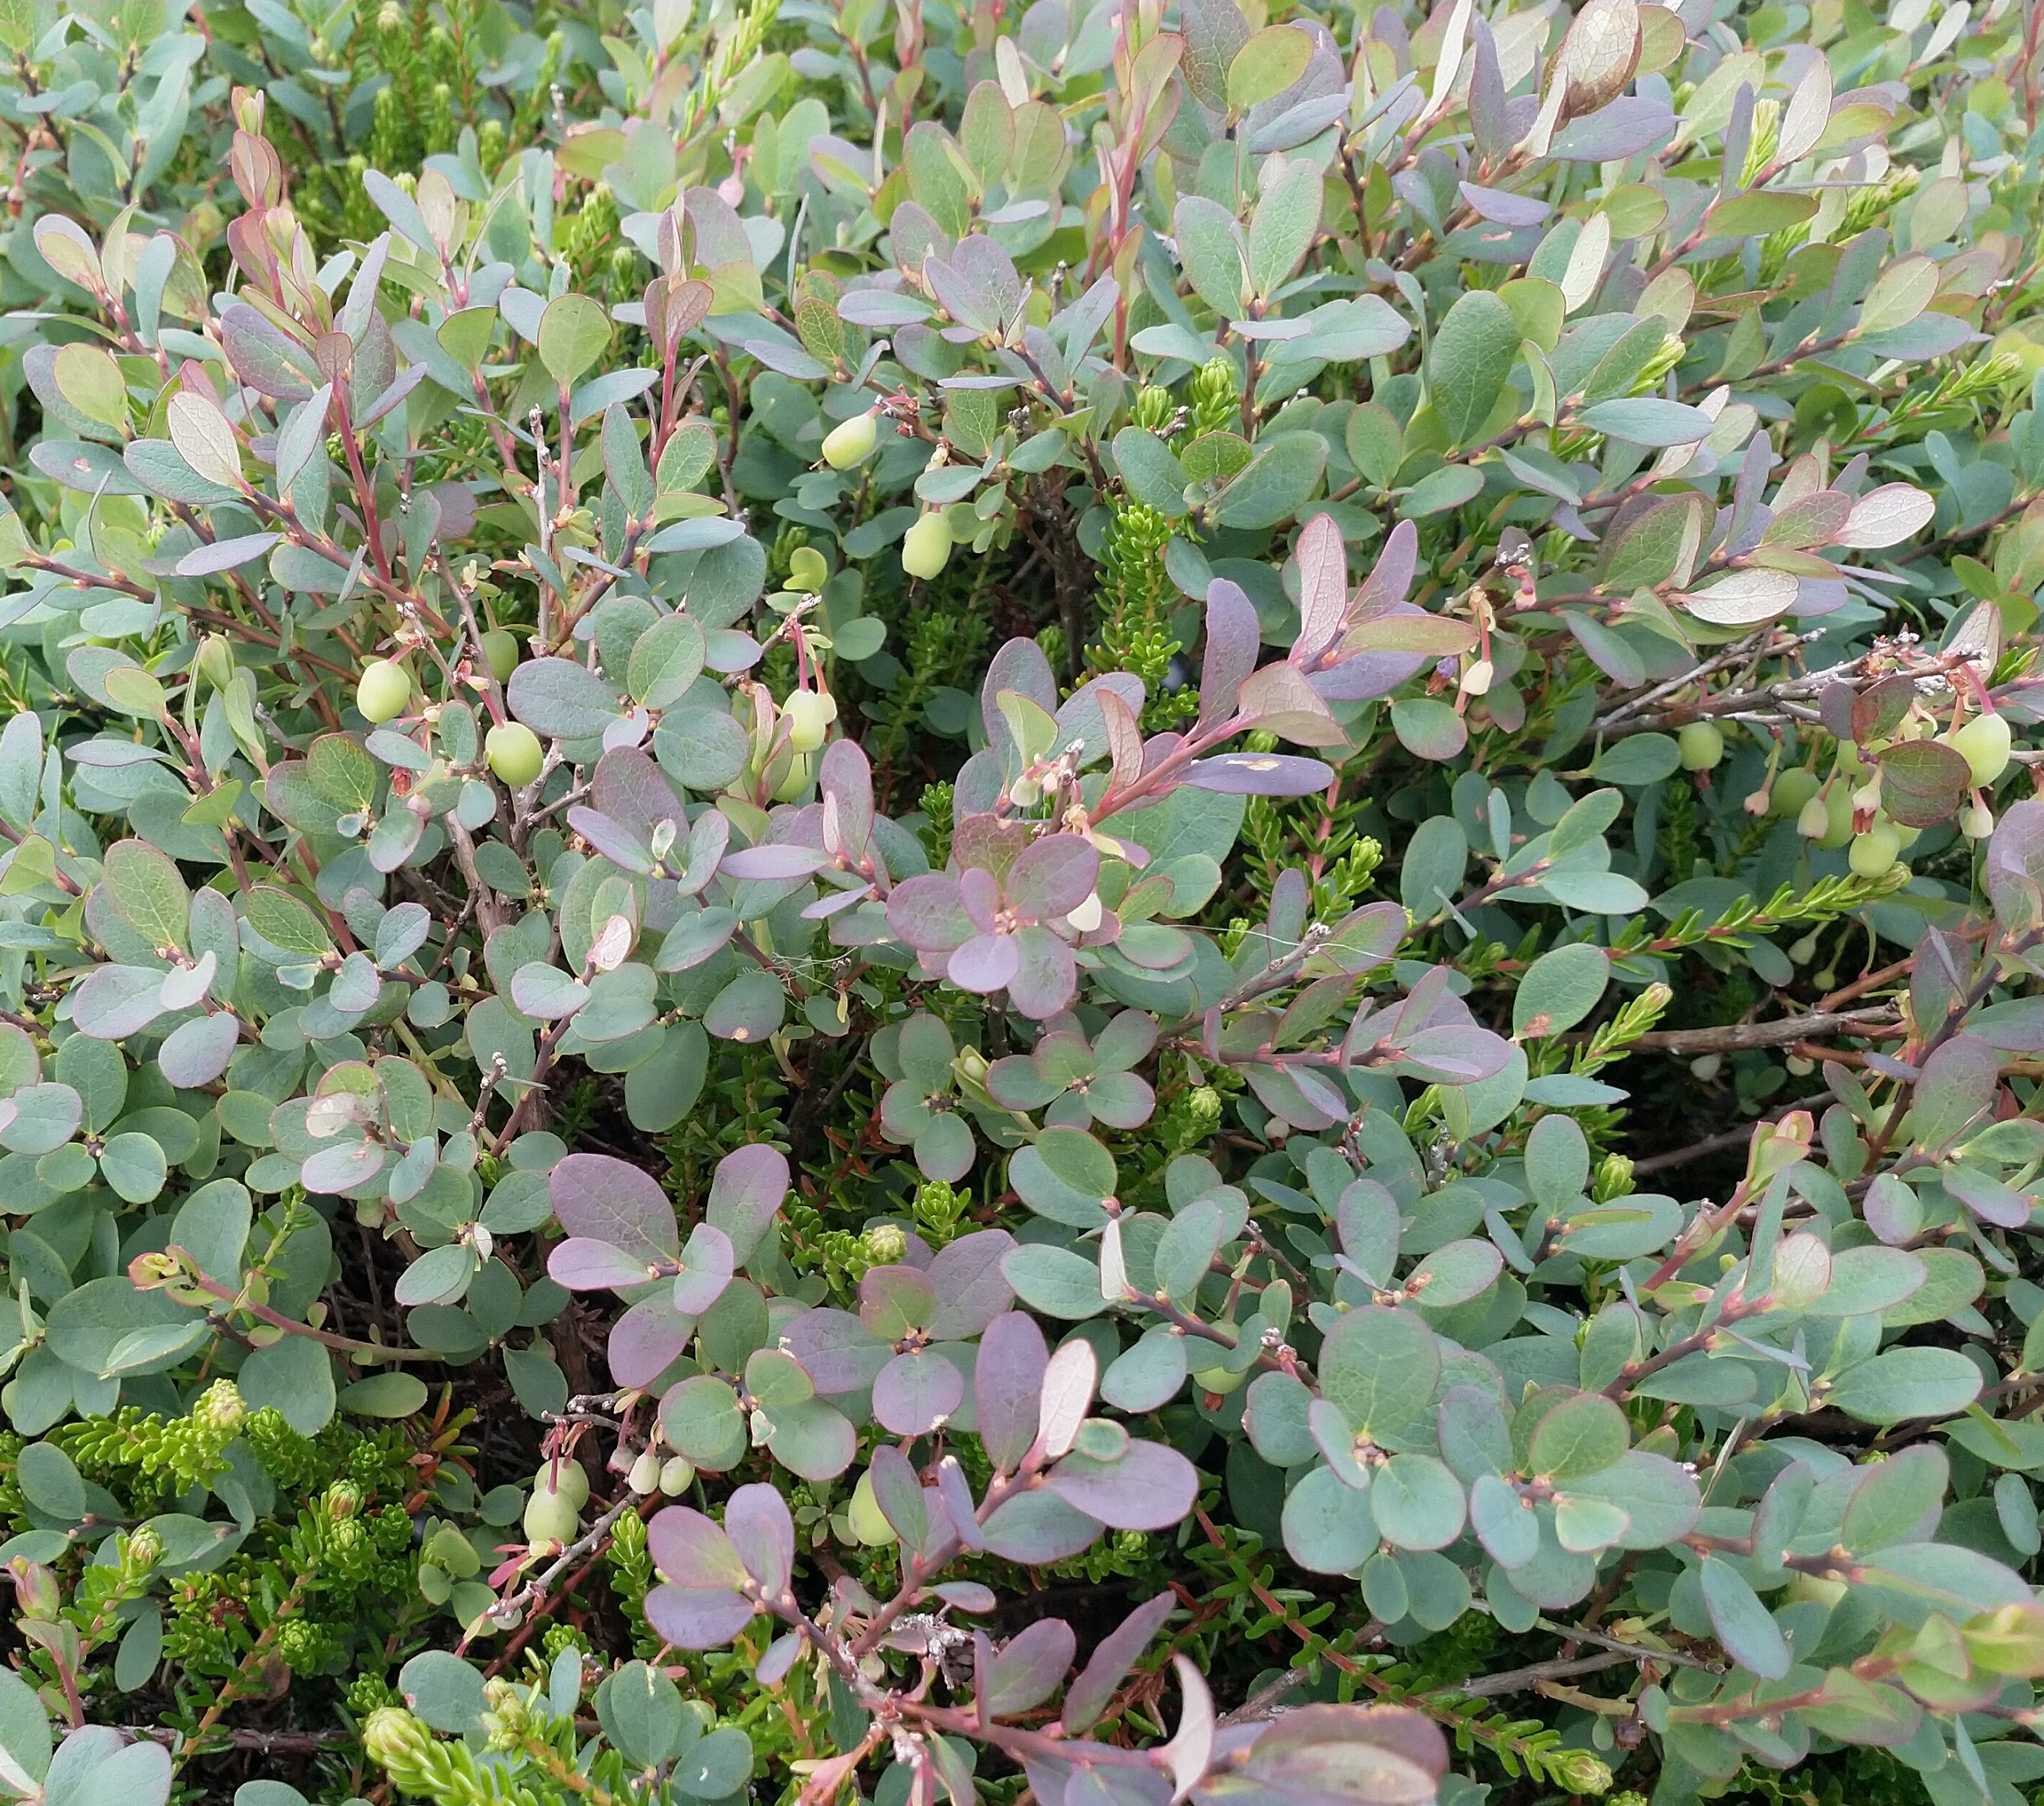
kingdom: Plantae
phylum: Tracheophyta
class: Magnoliopsida
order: Ericales
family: Ericaceae
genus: Vaccinium
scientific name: Vaccinium uliginosum
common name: Mose-bølle
